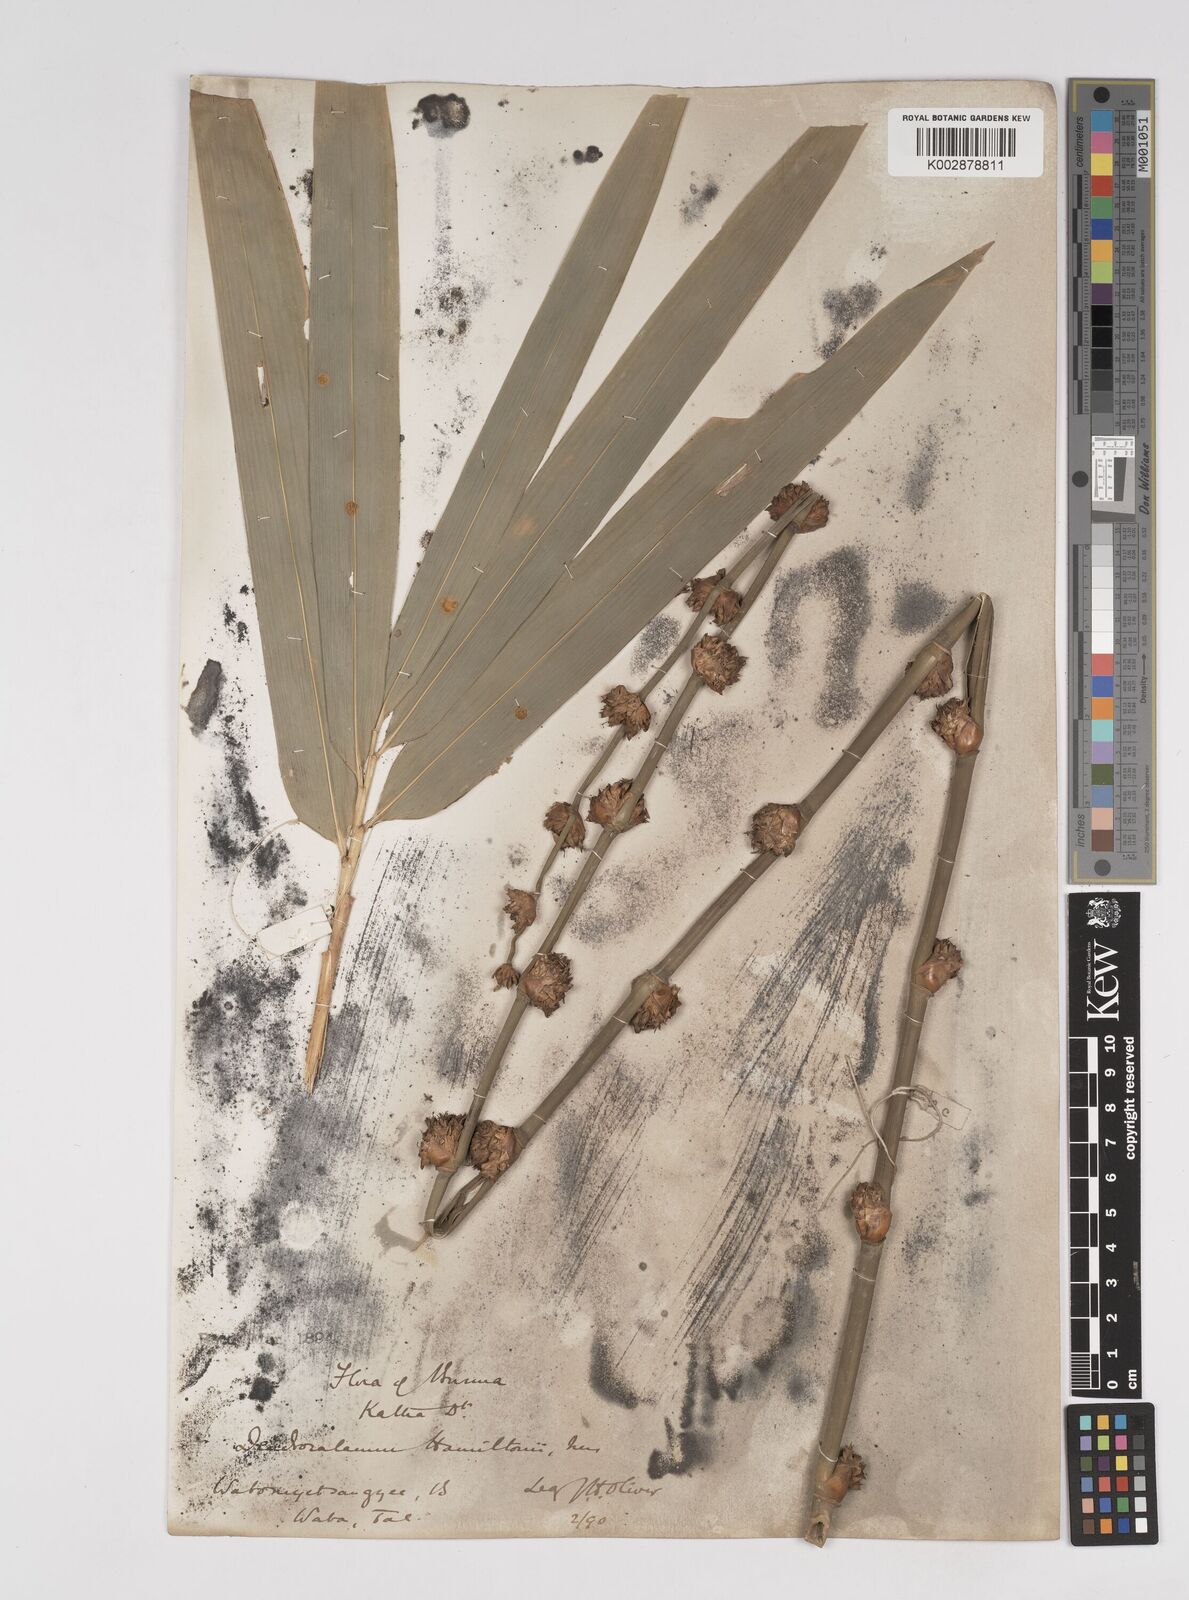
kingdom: Plantae
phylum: Tracheophyta
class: Liliopsida
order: Poales
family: Poaceae
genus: Dendrocalamus
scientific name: Dendrocalamus hamiltonii
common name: Tama bamboo
